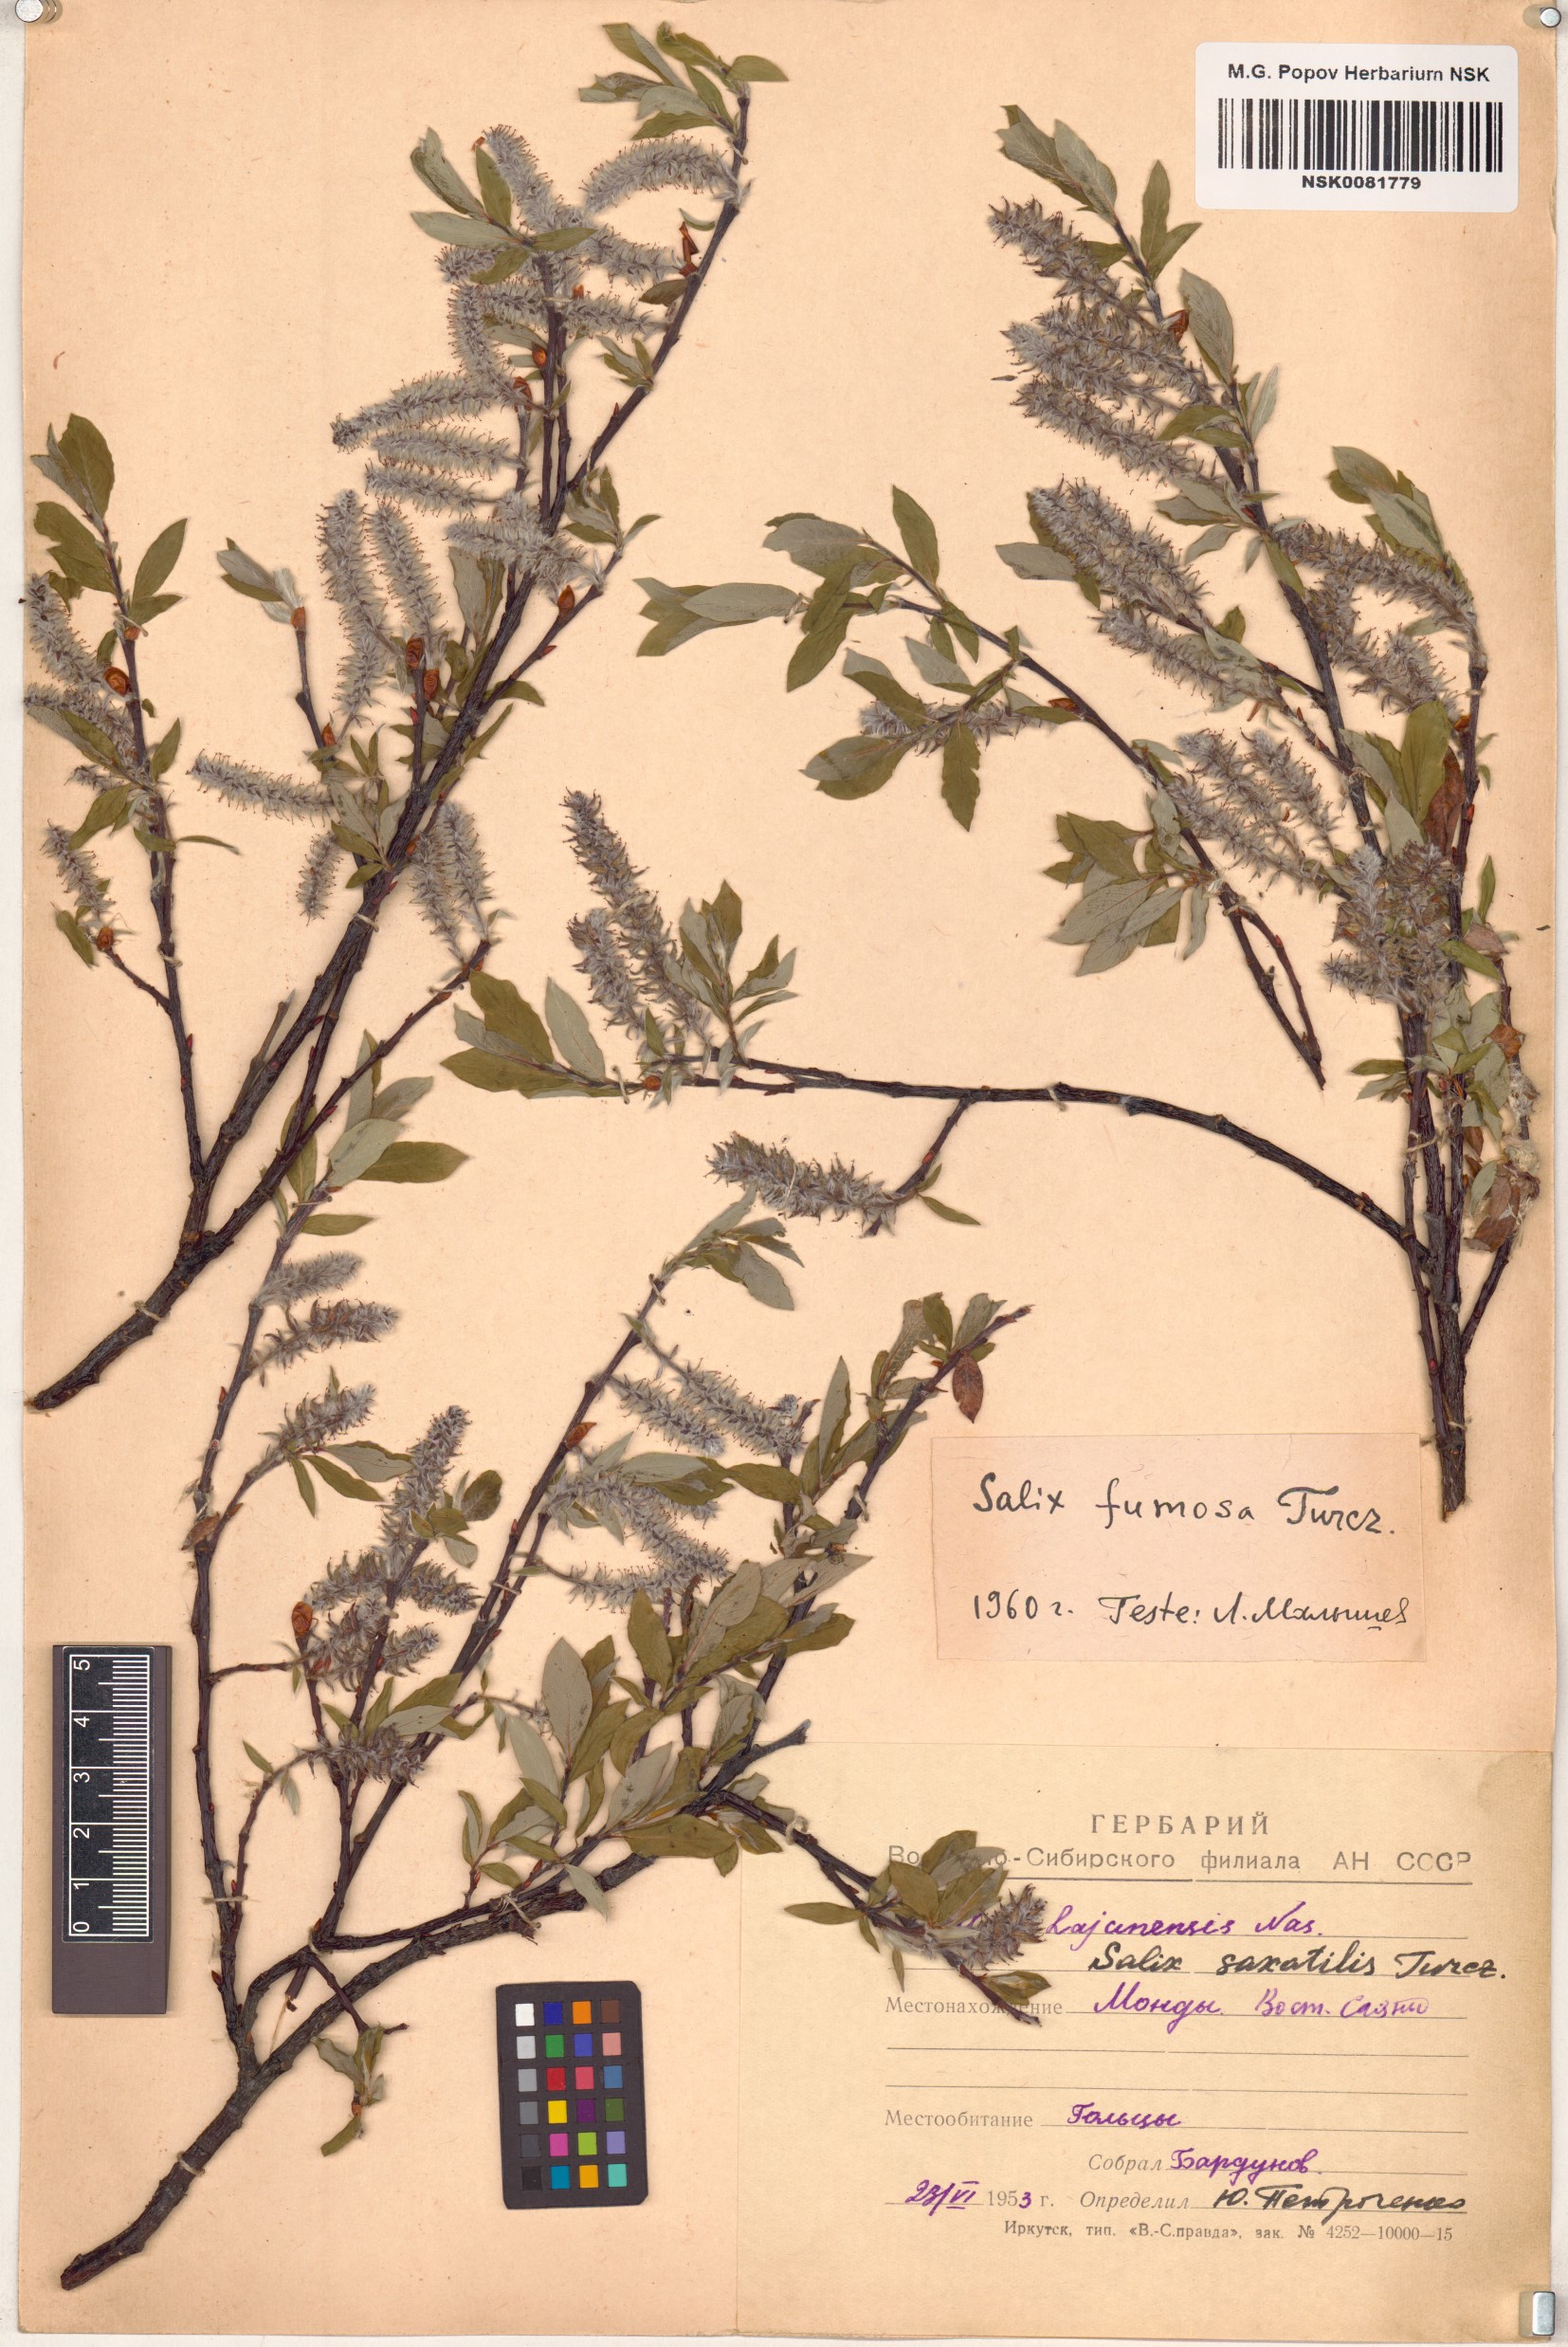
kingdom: Plantae
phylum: Tracheophyta
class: Magnoliopsida
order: Malpighiales
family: Salicaceae
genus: Salix
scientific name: Salix saxatilis
